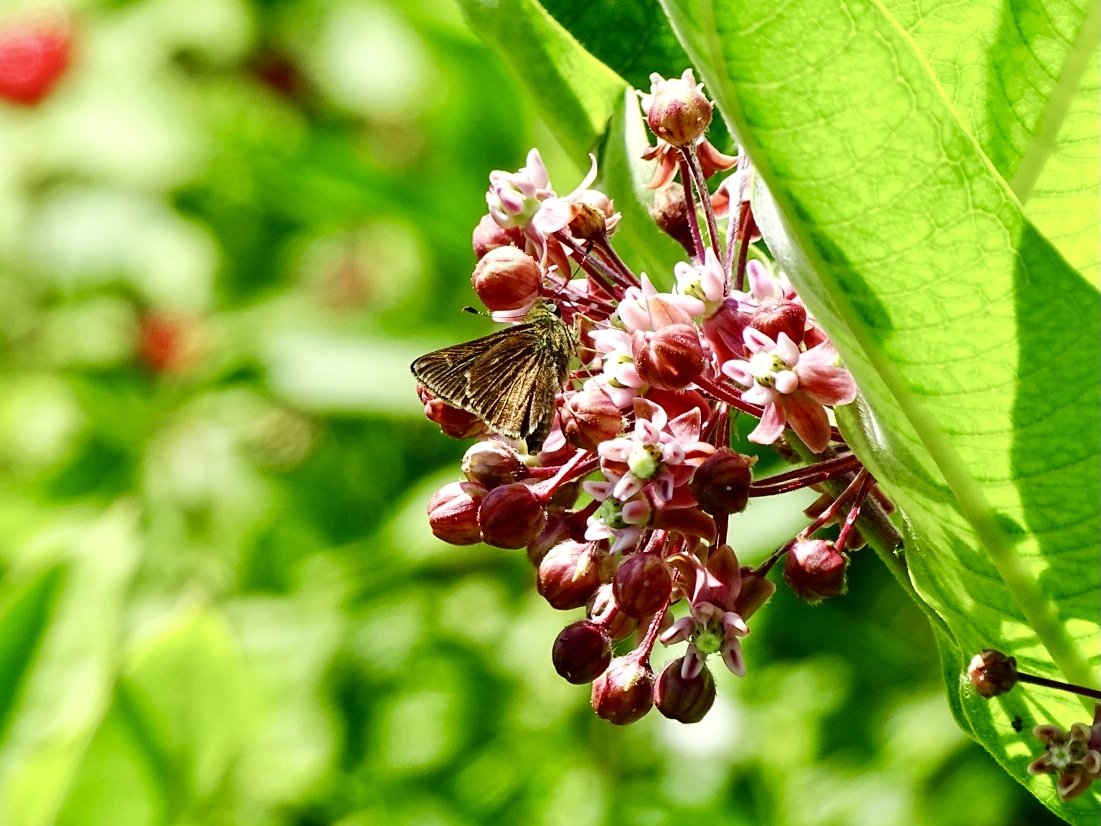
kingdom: Animalia
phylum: Arthropoda
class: Insecta
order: Lepidoptera
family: Hesperiidae
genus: Vernia
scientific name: Vernia verna
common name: Little Glassywing
